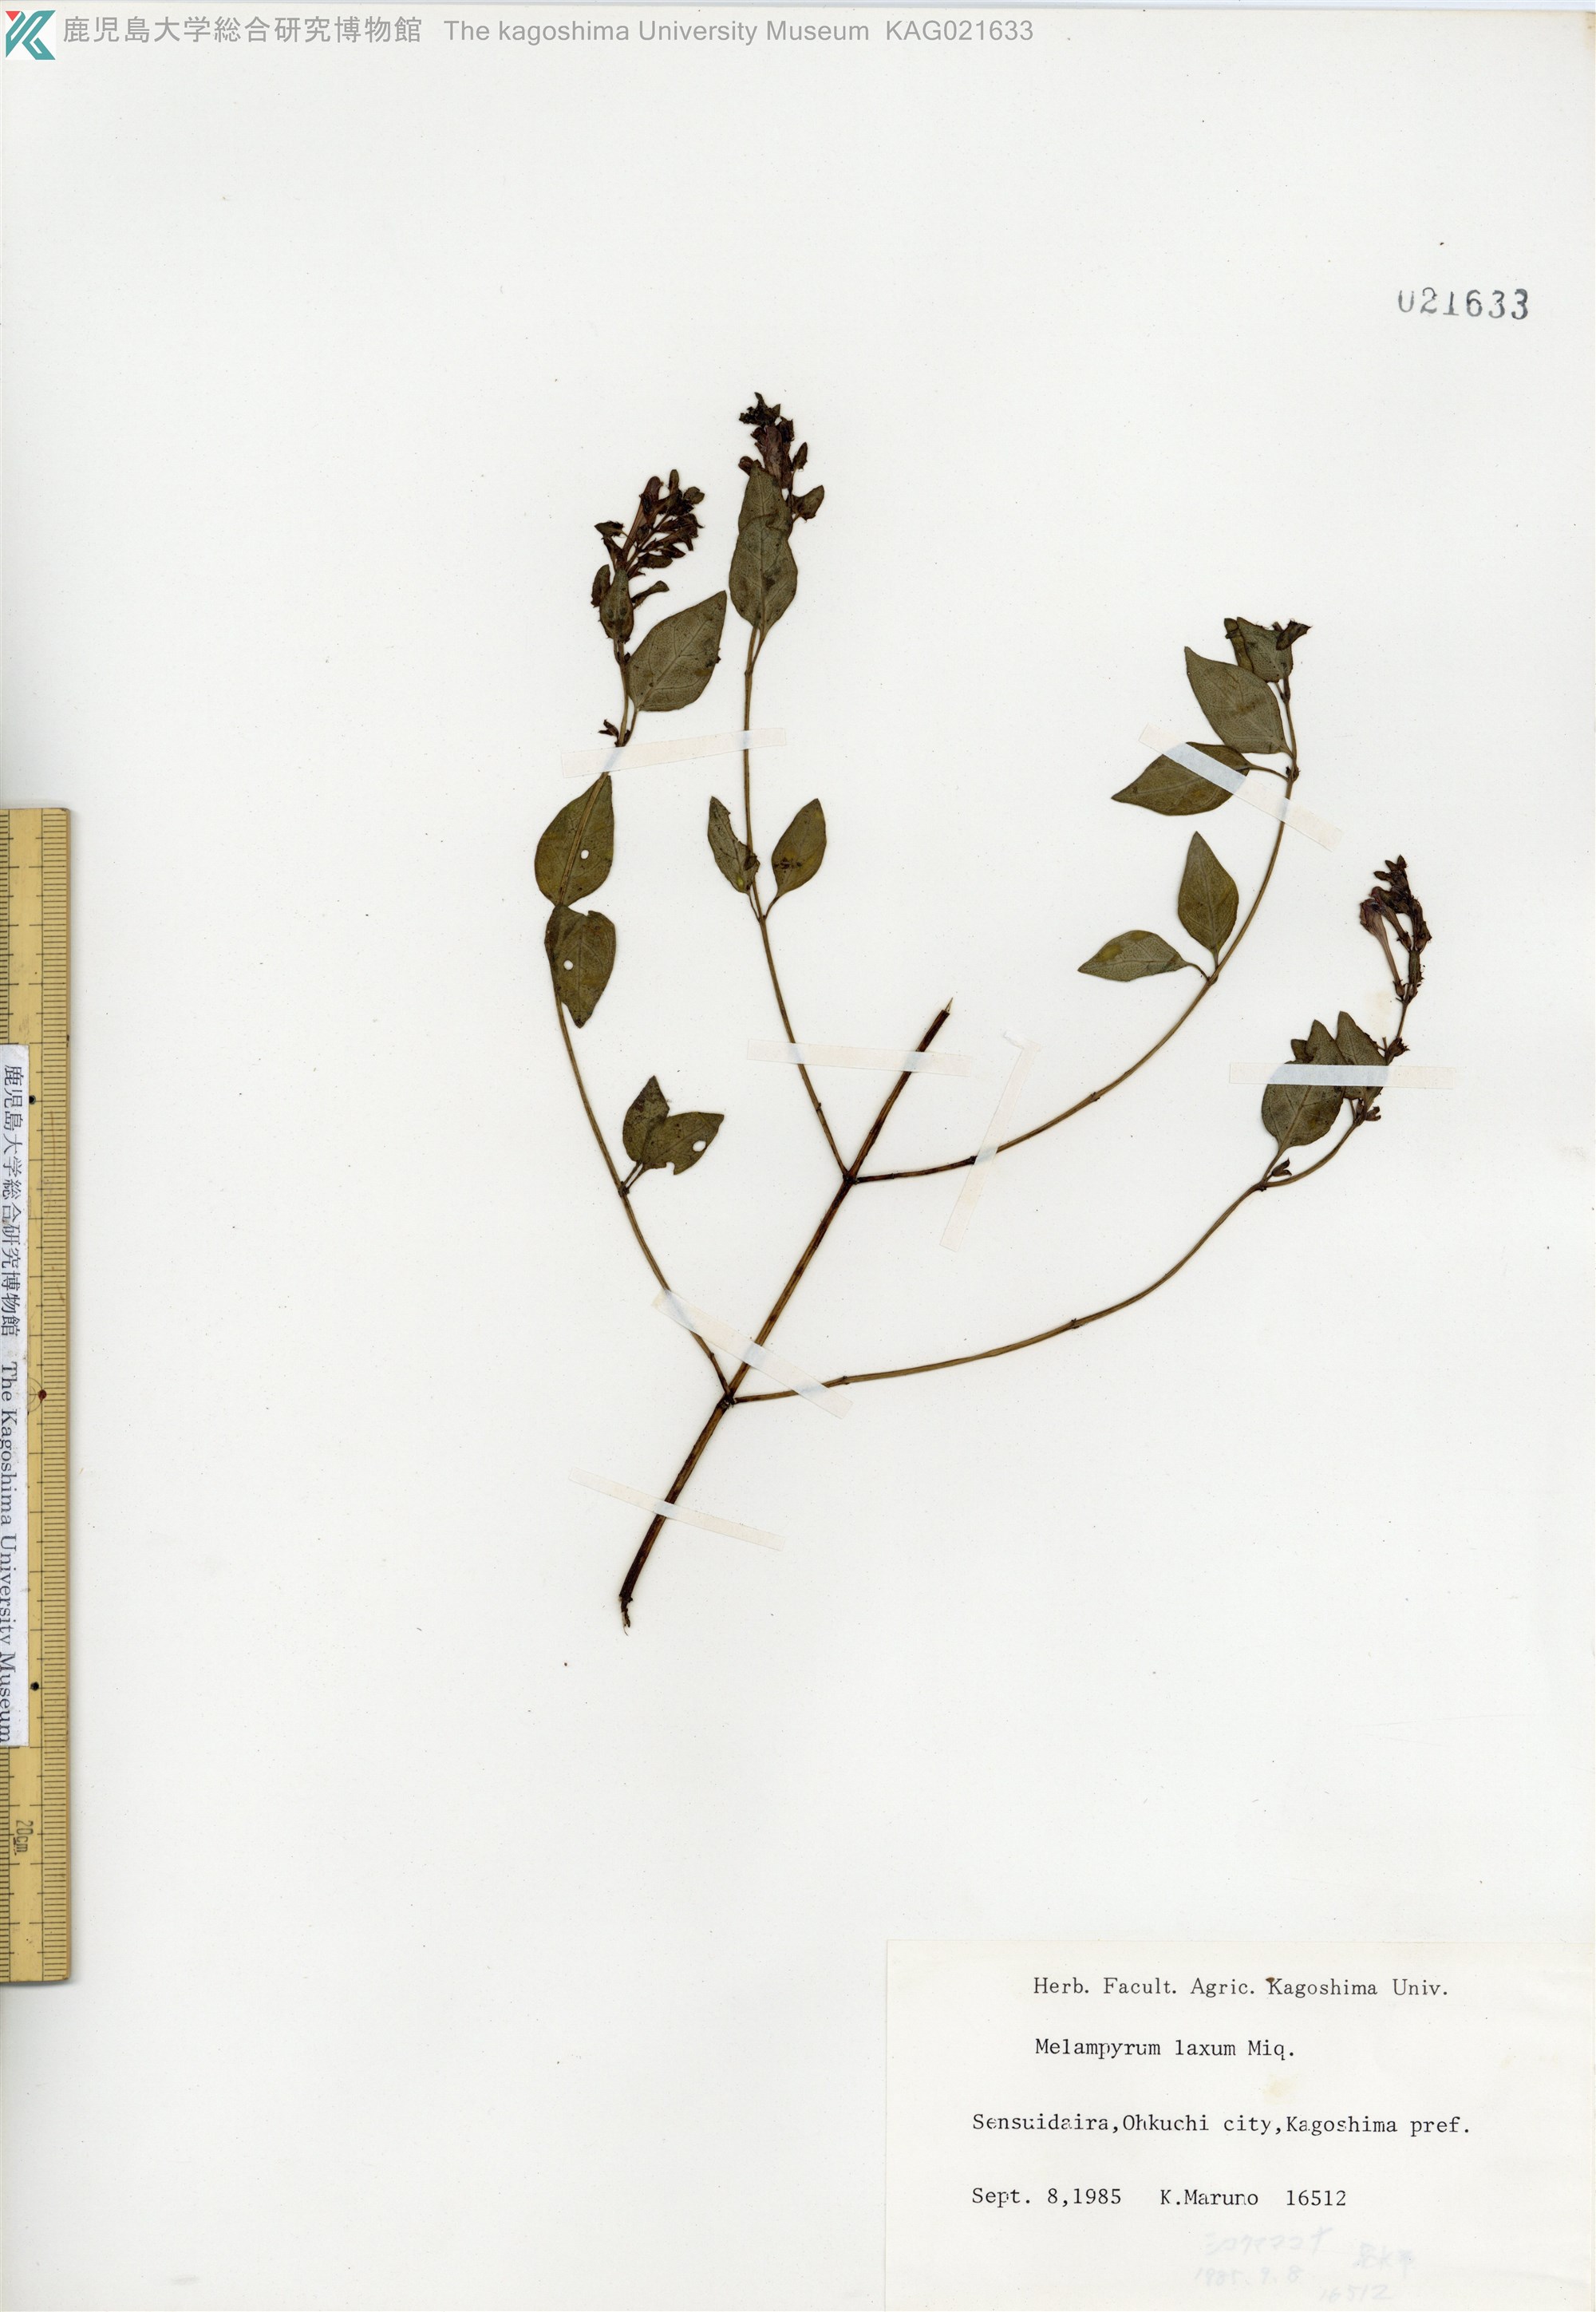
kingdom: Plantae
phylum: Tracheophyta
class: Magnoliopsida
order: Lamiales
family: Orobanchaceae
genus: Melampyrum
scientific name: Melampyrum laxum
